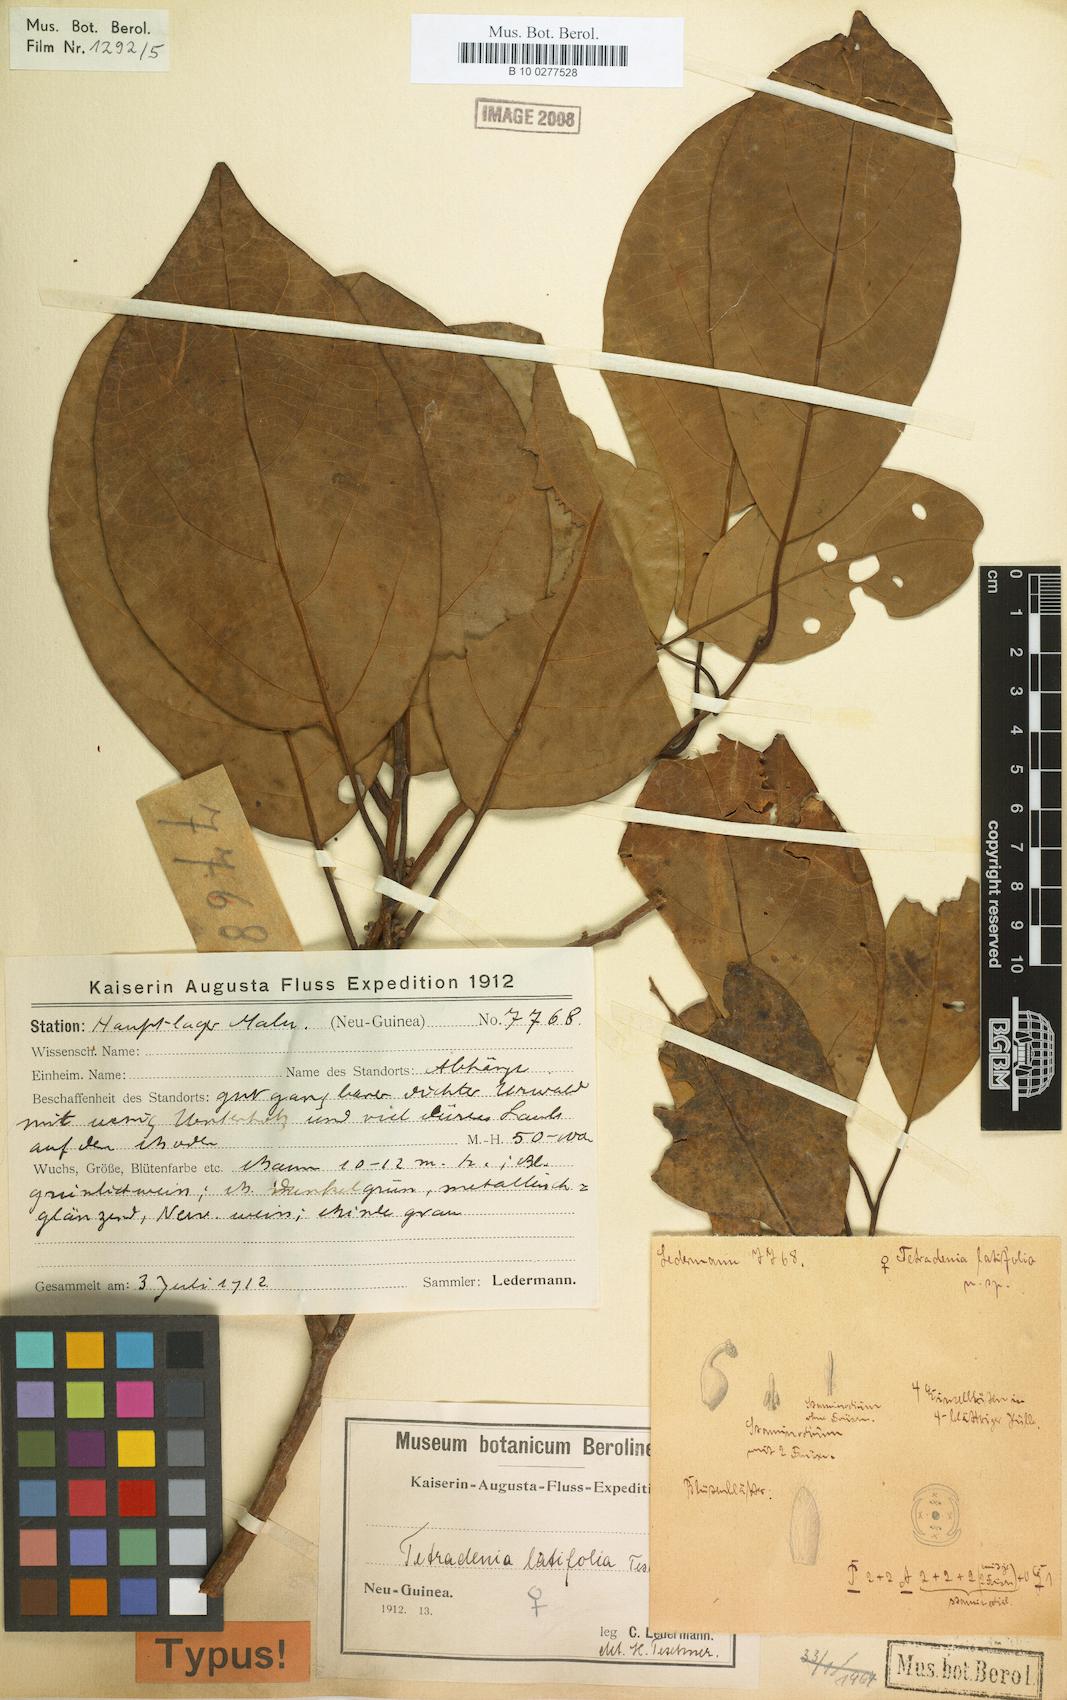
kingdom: Plantae
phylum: Tracheophyta
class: Magnoliopsida
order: Laurales
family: Lauraceae
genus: Neolitsea
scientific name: Neolitsea latifolia
